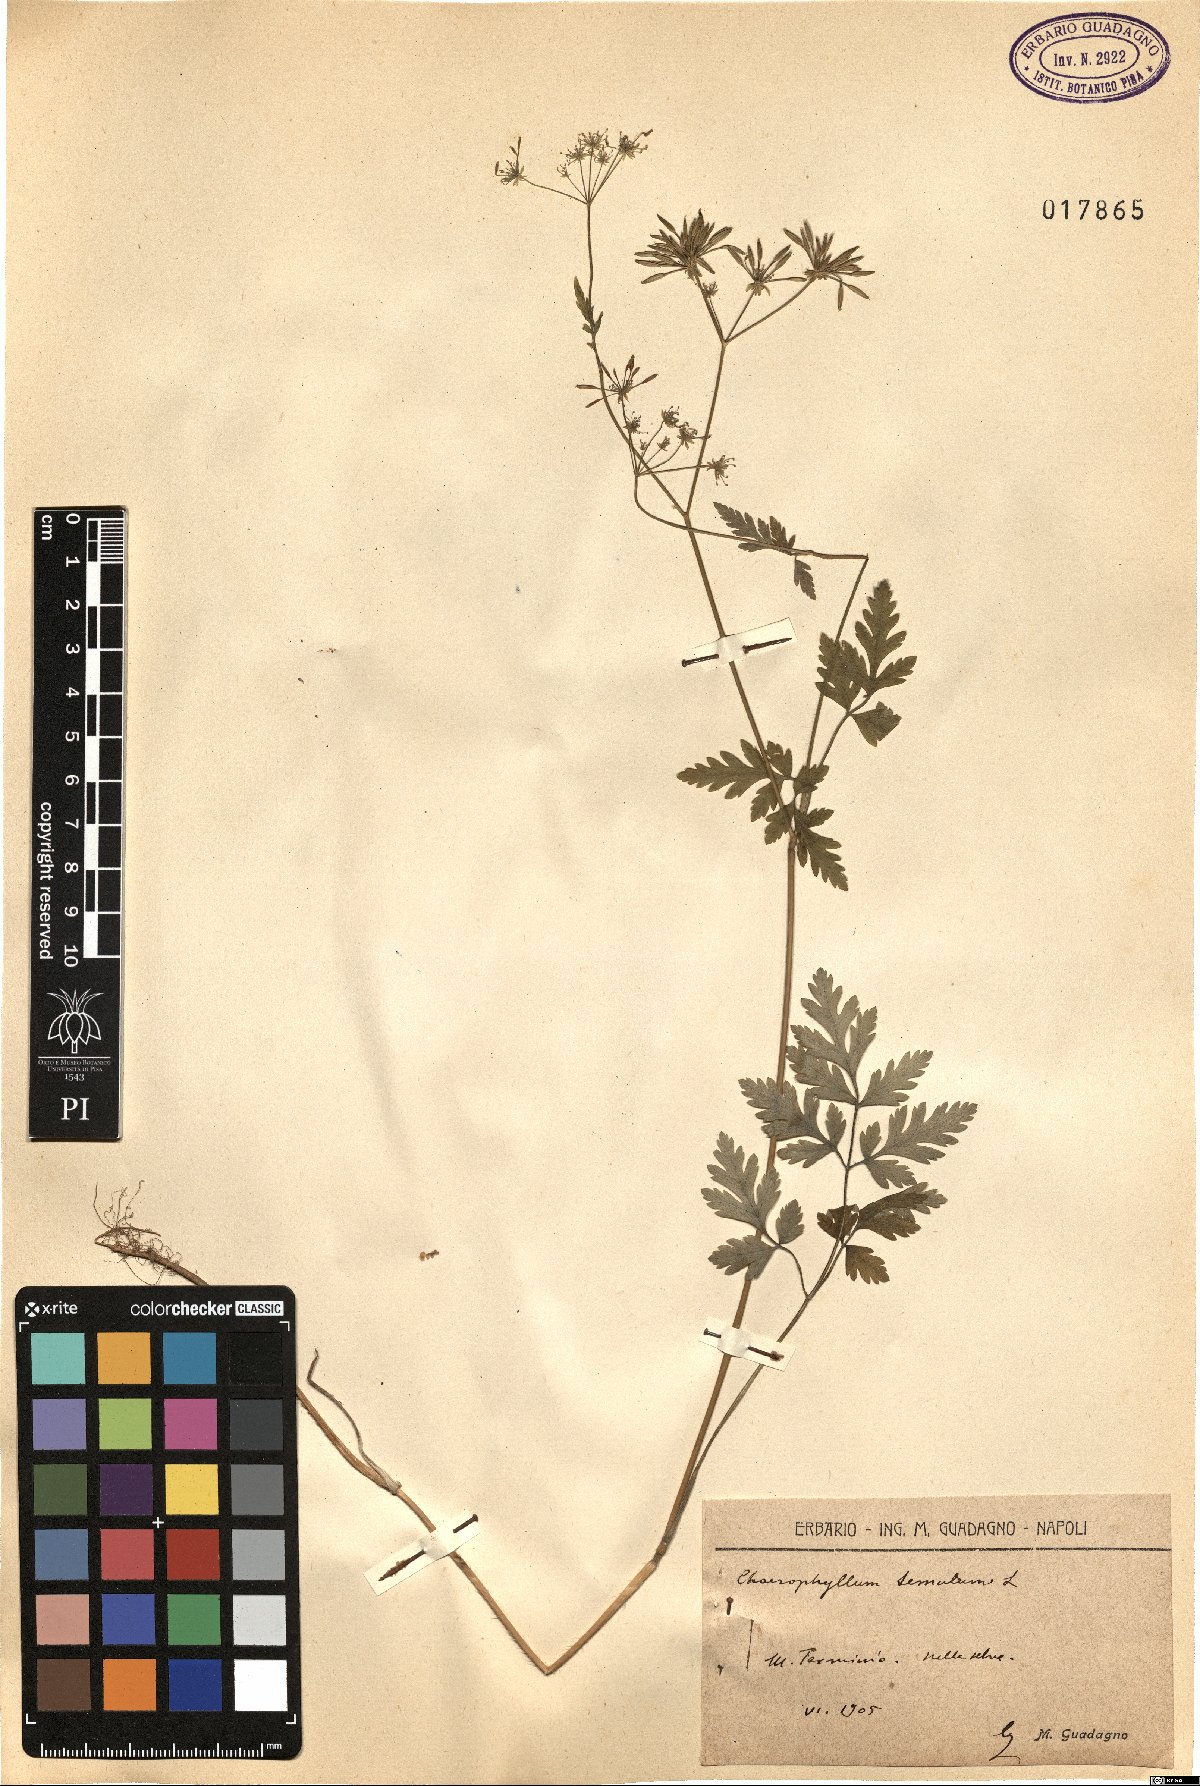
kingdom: Plantae
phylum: Tracheophyta
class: Magnoliopsida
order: Apiales
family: Apiaceae
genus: Chaerophyllum
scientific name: Chaerophyllum temulum
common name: Rough chervil
